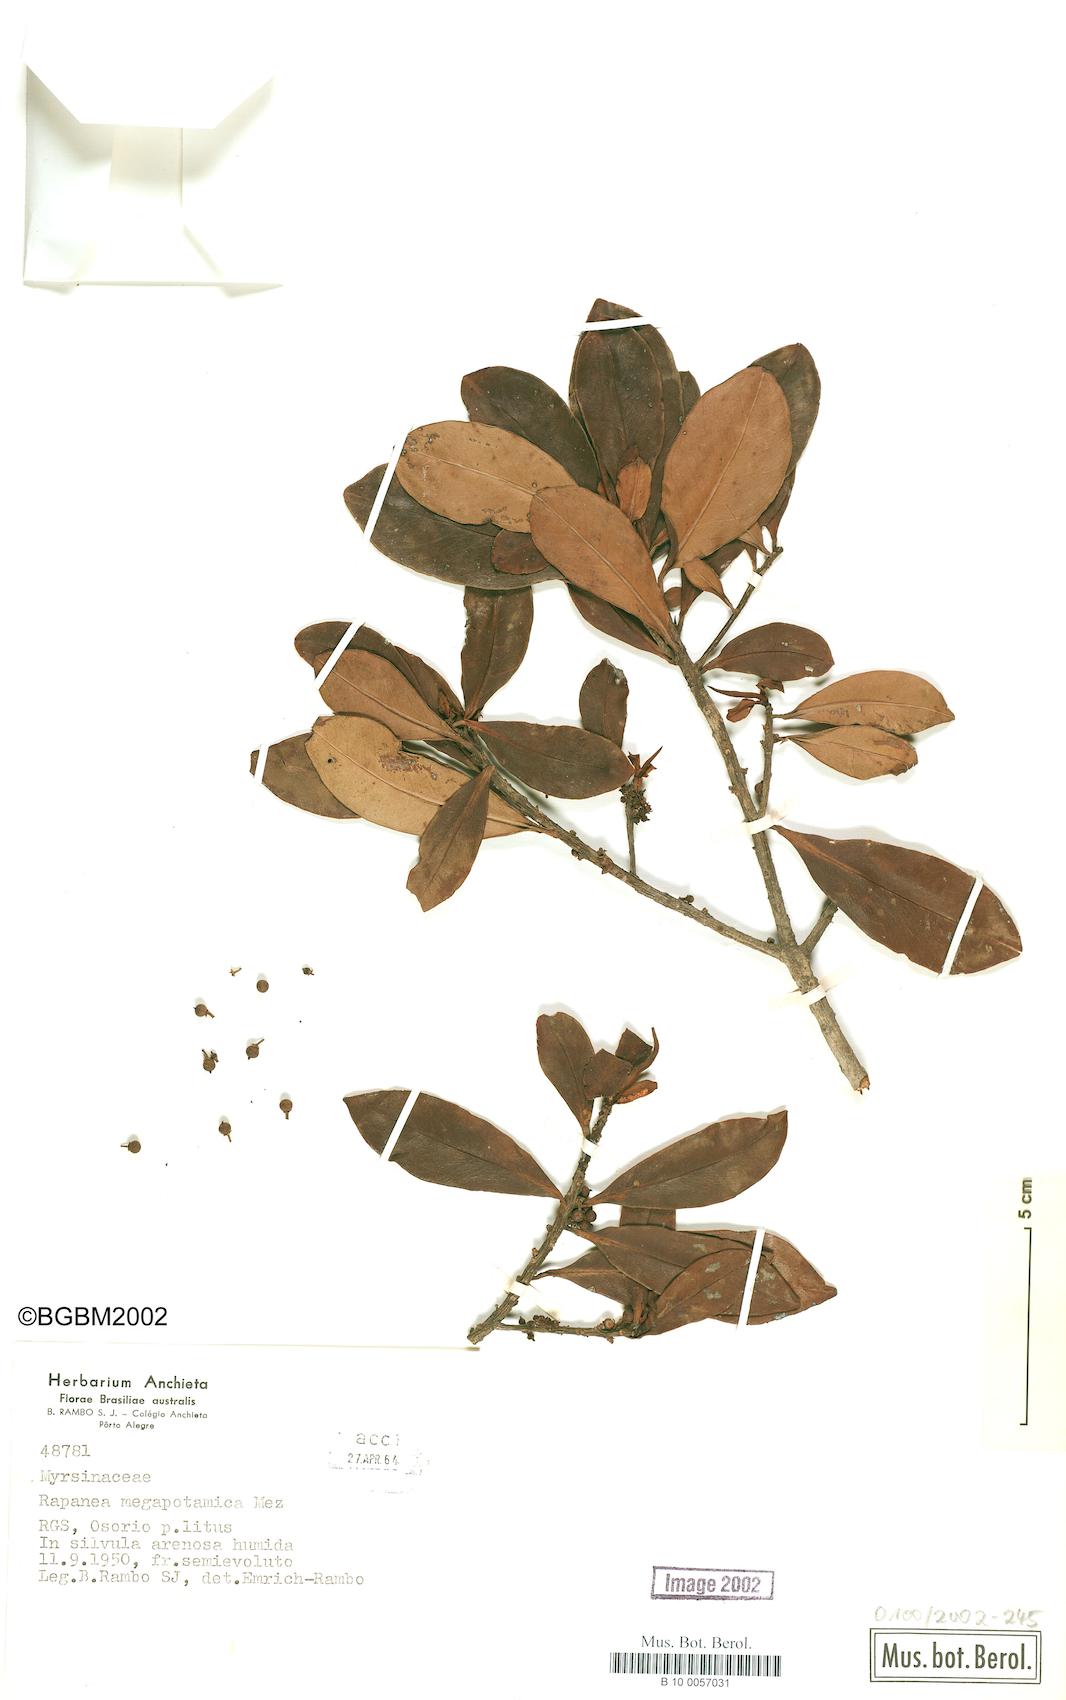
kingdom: Plantae
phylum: Tracheophyta
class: Magnoliopsida
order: Ericales
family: Primulaceae
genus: Myrsine
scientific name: Myrsine lorentziana
